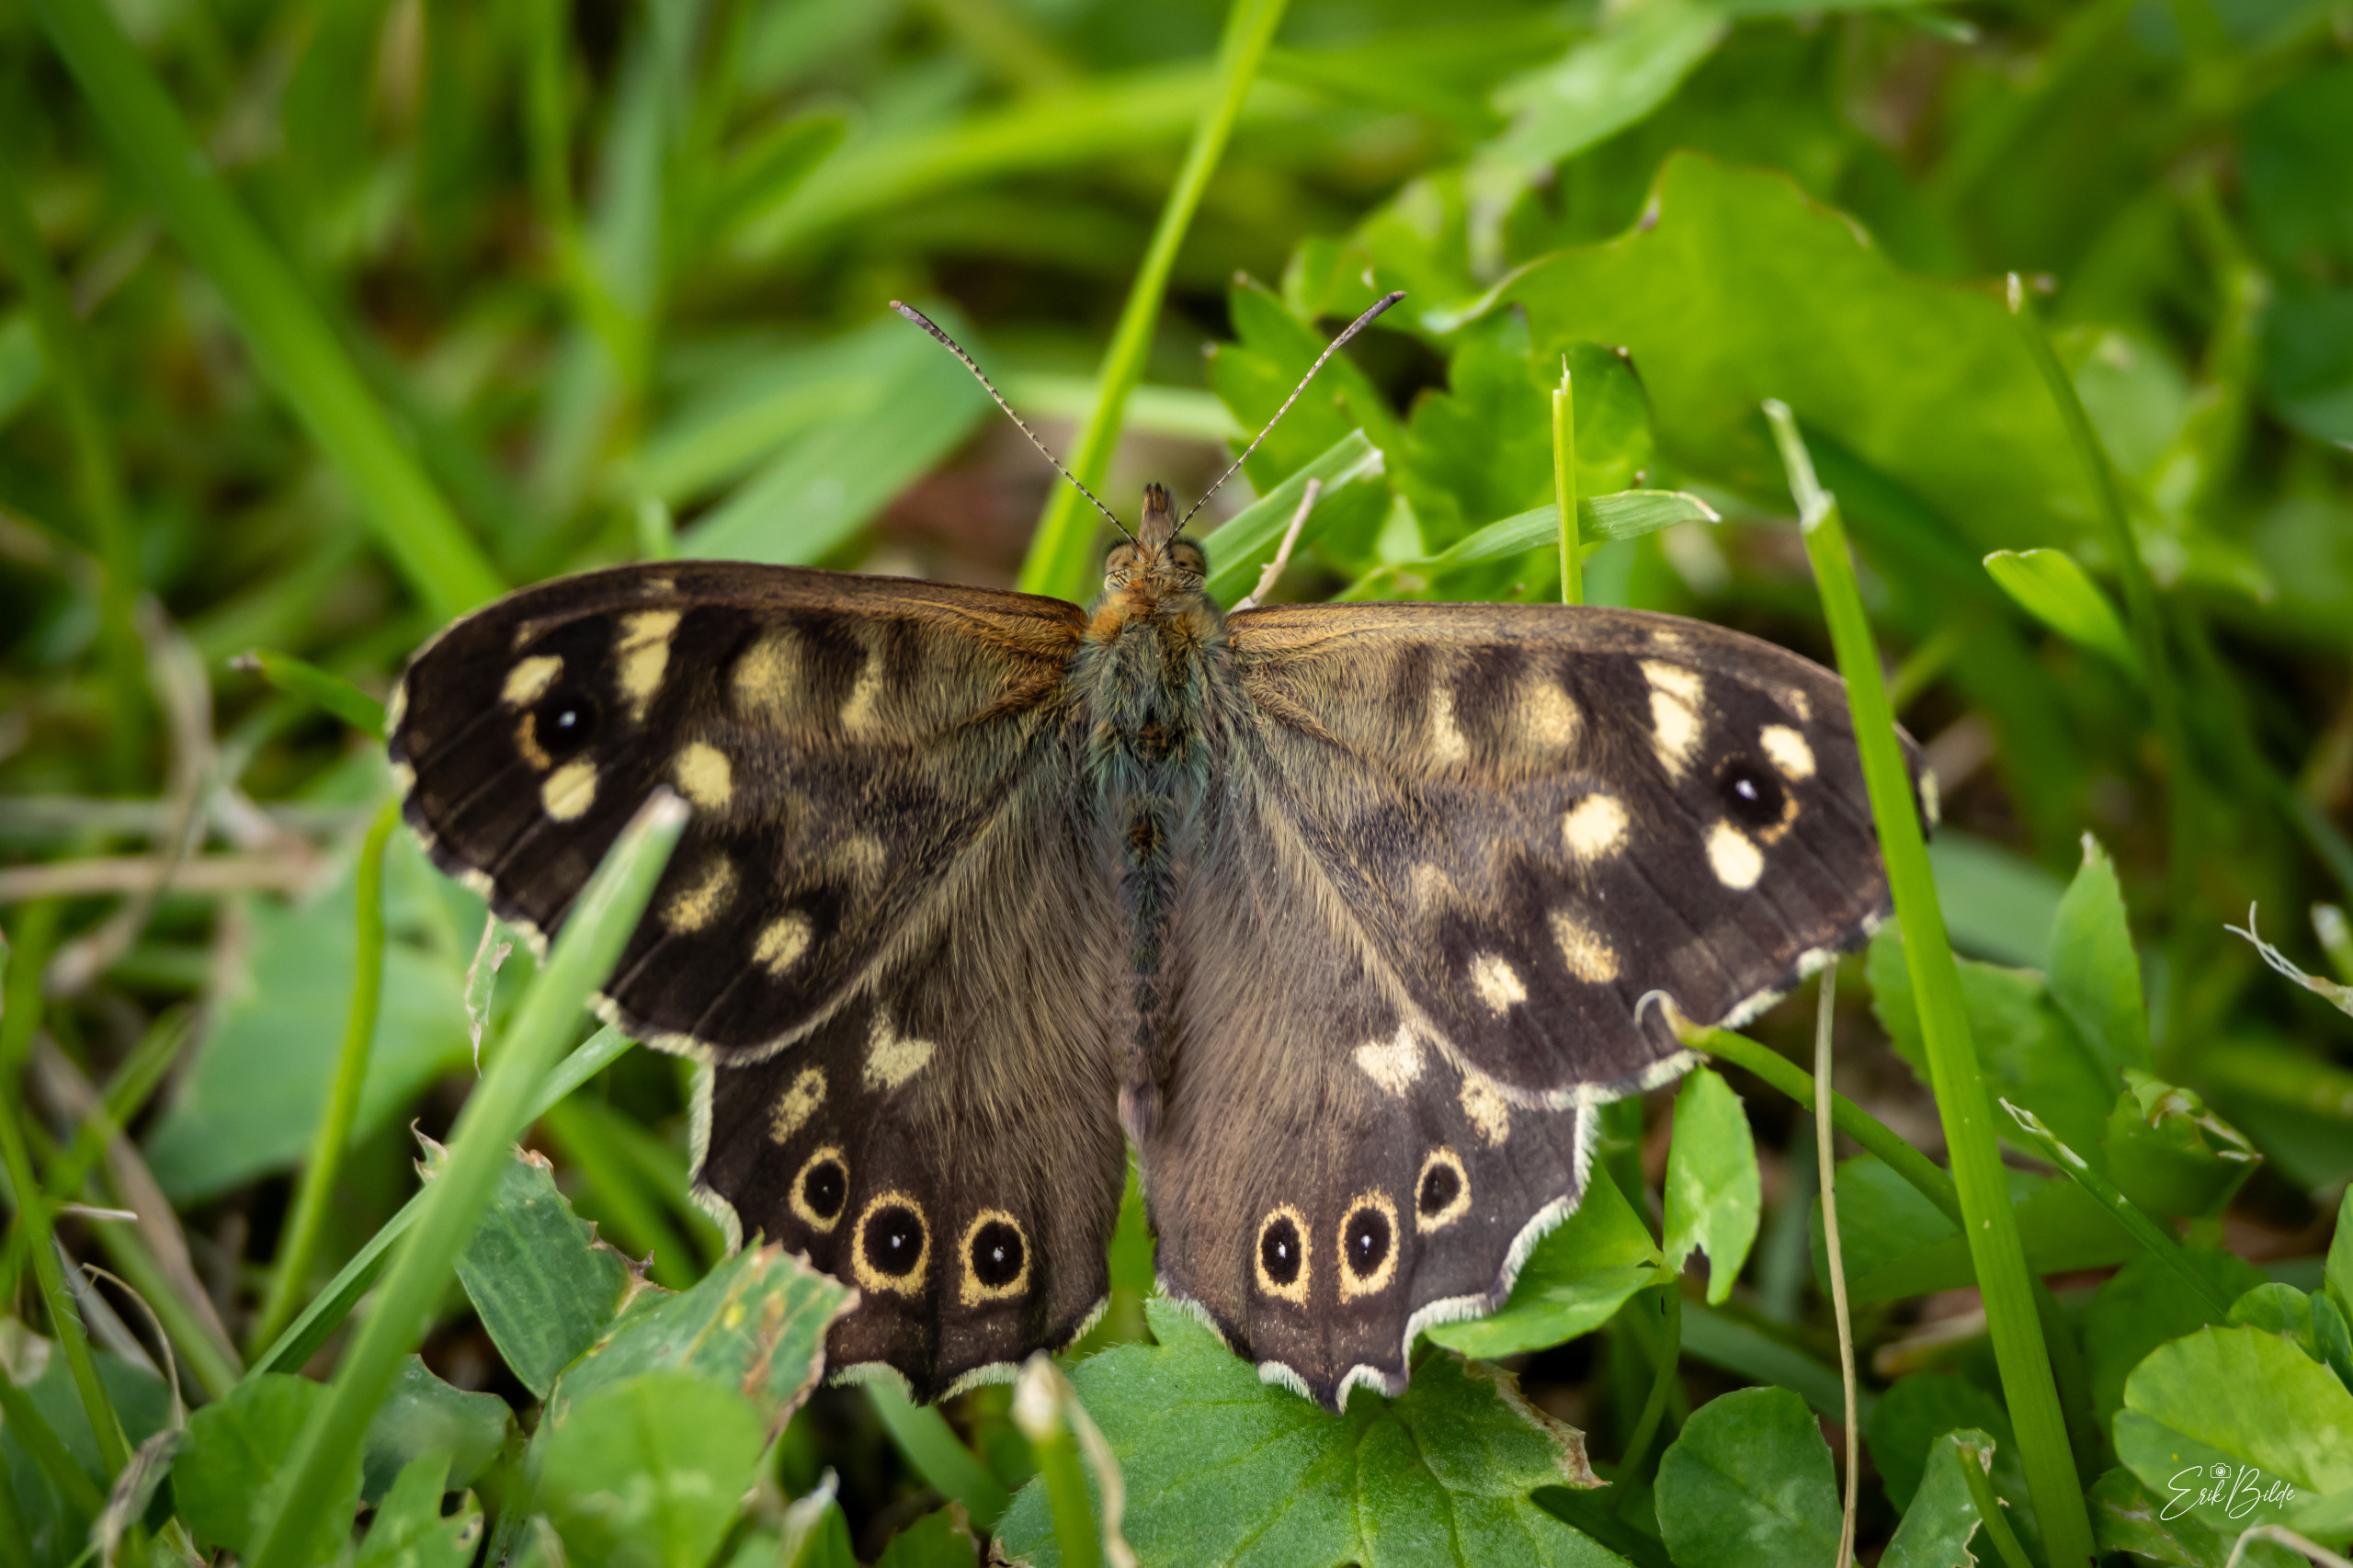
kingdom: Animalia
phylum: Arthropoda
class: Insecta
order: Lepidoptera
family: Nymphalidae
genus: Pararge
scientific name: Pararge aegeria
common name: Skovrandøje
